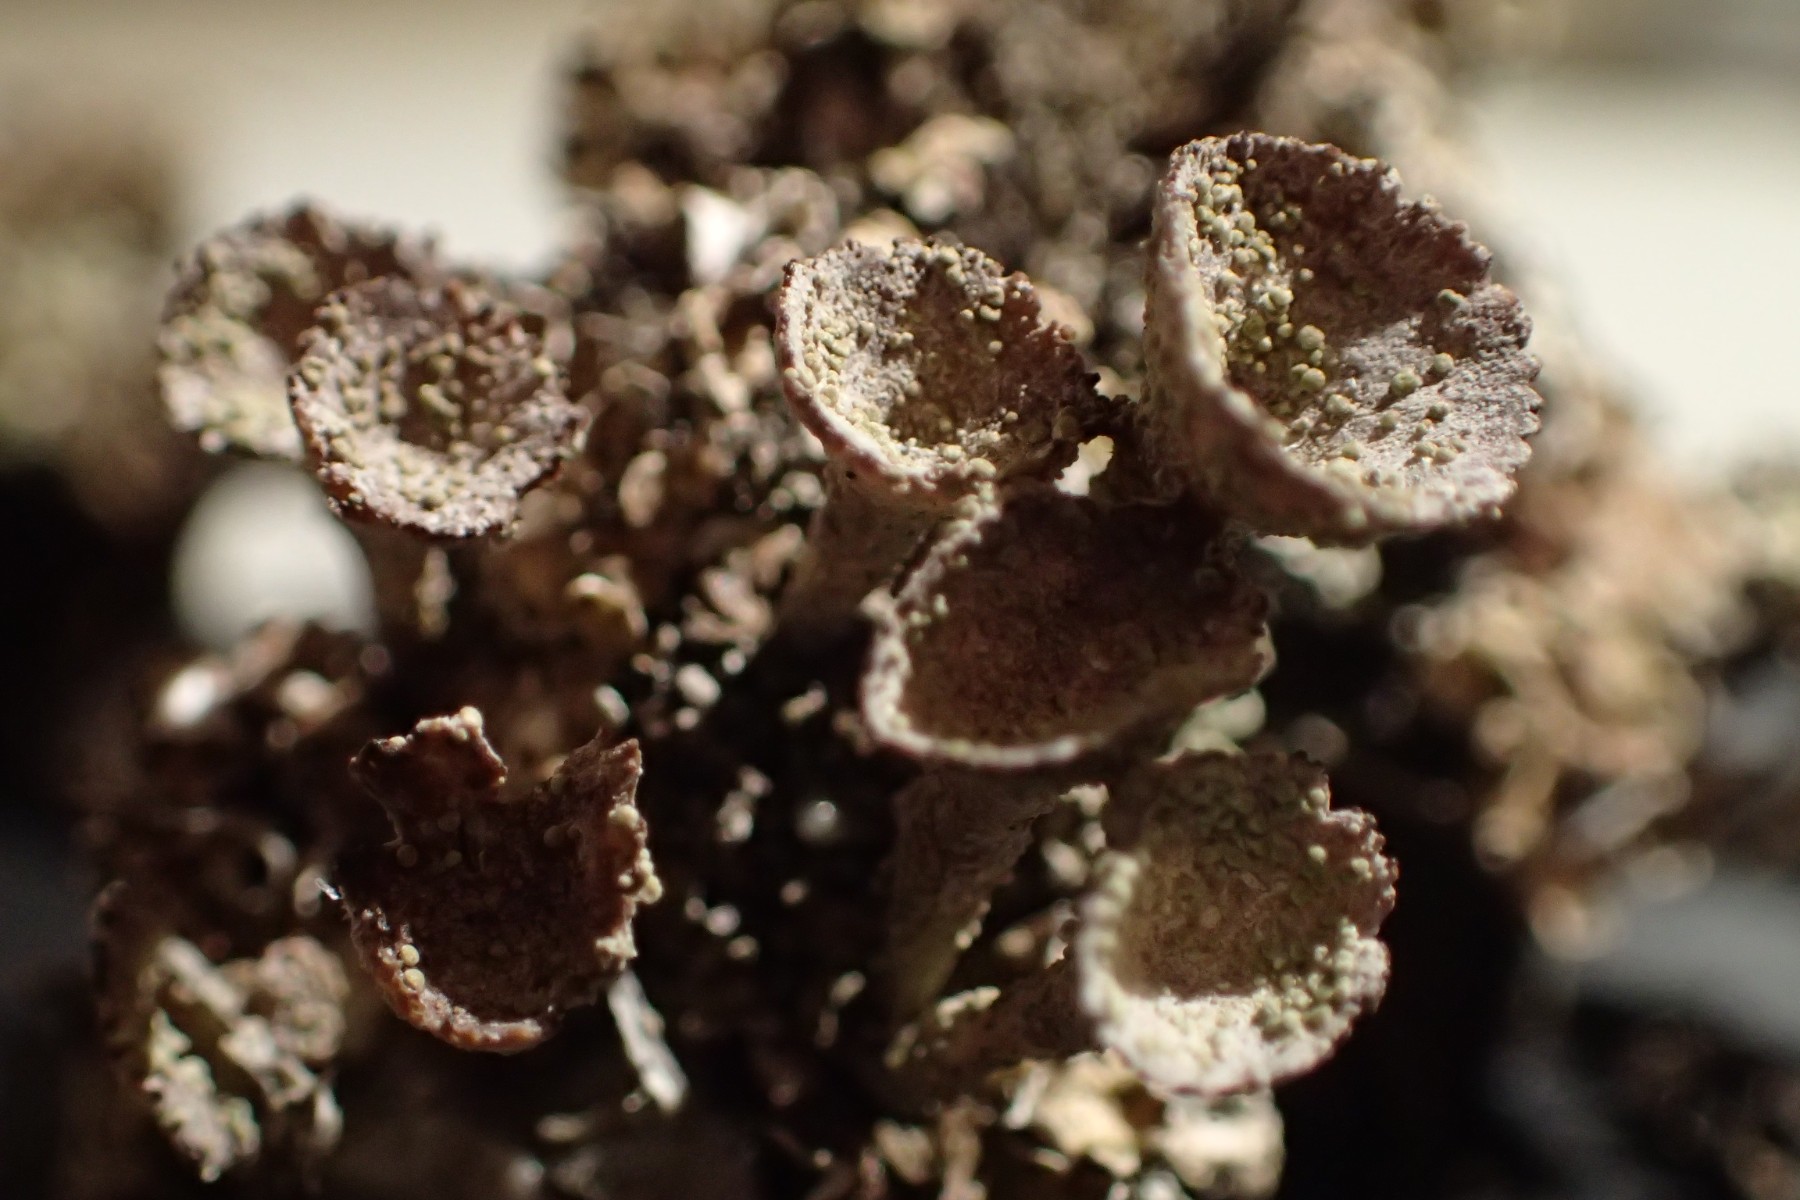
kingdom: Fungi
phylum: Ascomycota
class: Lecanoromycetes
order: Lecanorales
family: Cladoniaceae
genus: Cladonia
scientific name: Cladonia pocillum
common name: kalk-bægerlav
